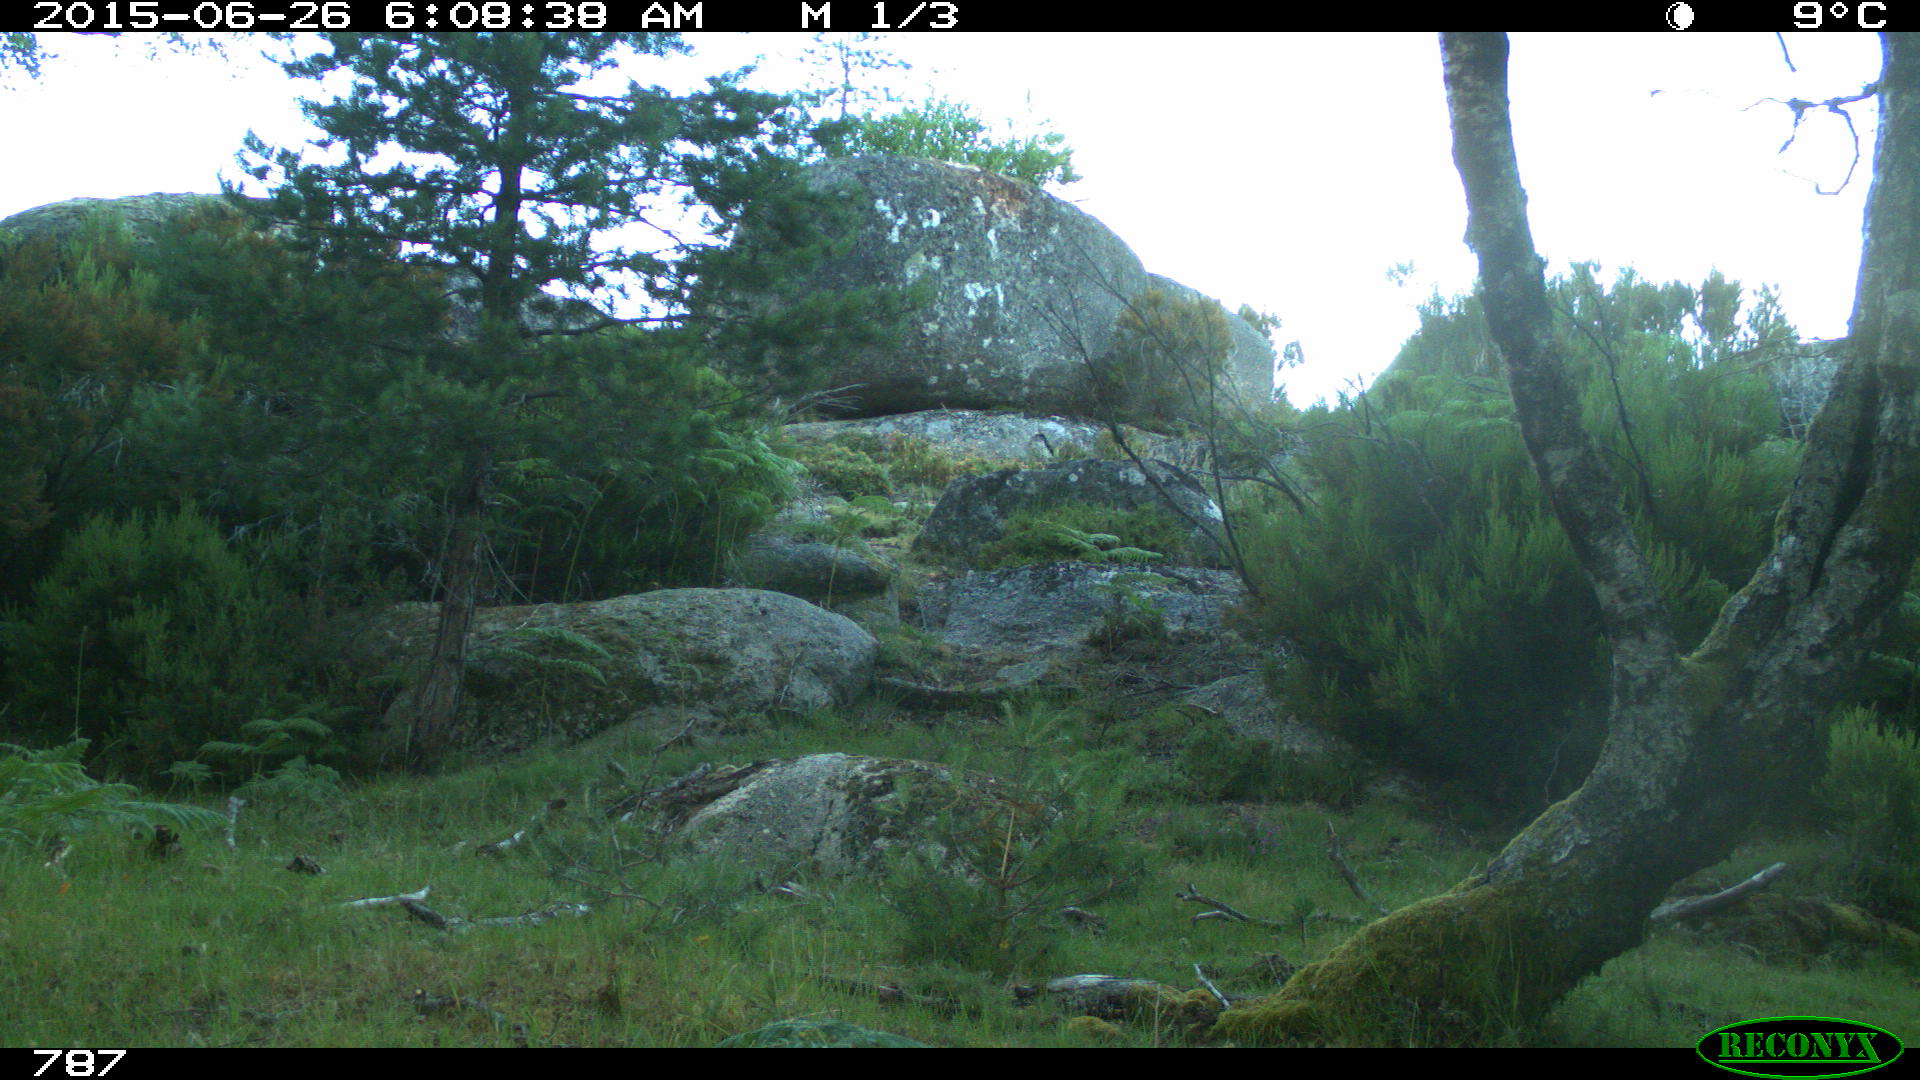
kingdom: Animalia
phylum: Chordata
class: Mammalia
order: Carnivora
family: Canidae
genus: Canis
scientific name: Canis lupus
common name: Gray wolf
